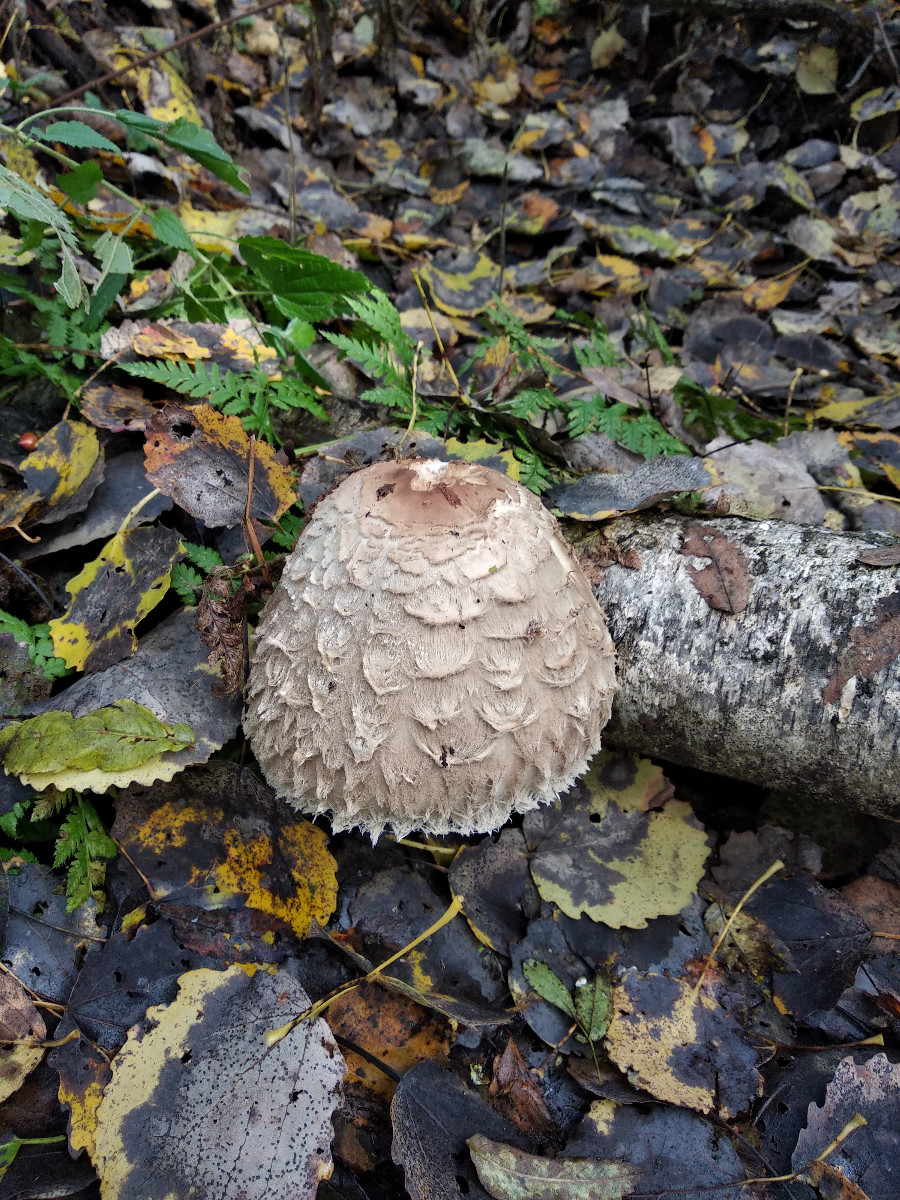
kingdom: Fungi
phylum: Basidiomycota
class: Agaricomycetes
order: Agaricales
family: Agaricaceae
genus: Chlorophyllum
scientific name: Chlorophyllum
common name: rabarberhat
